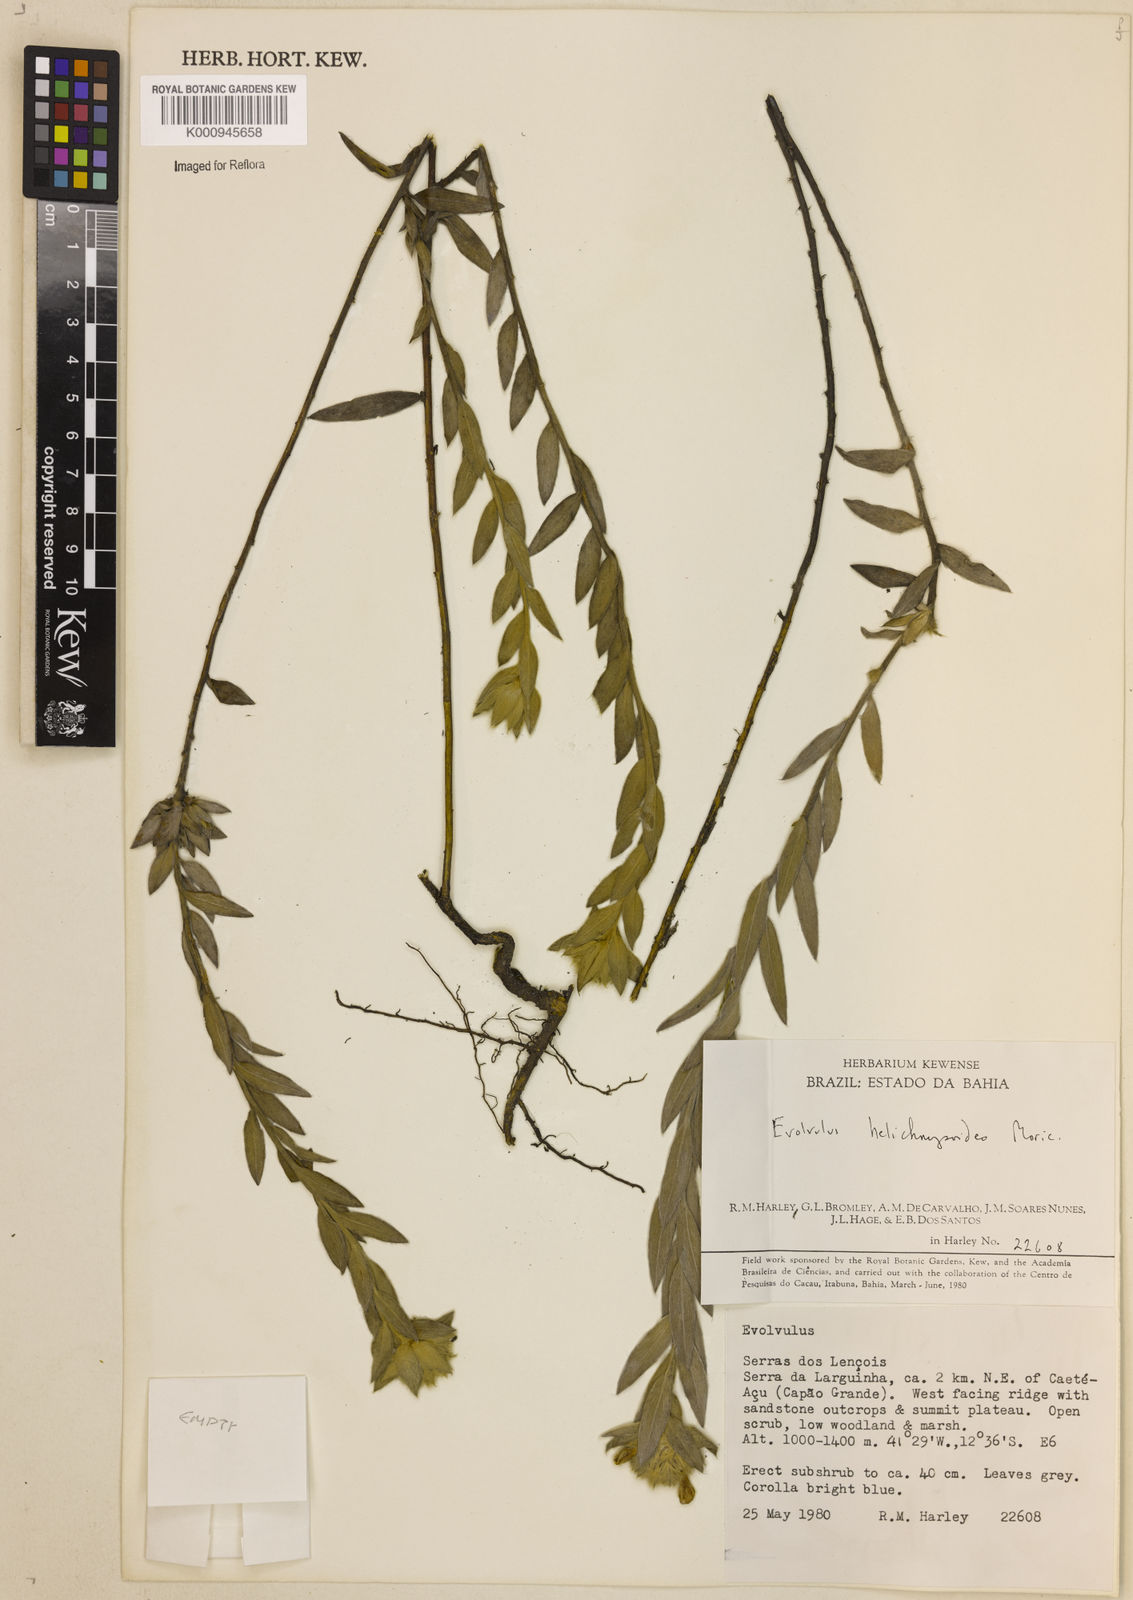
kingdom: Plantae
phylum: Tracheophyta
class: Magnoliopsida
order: Solanales
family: Convolvulaceae
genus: Evolvulus
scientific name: Evolvulus helichrysoides
